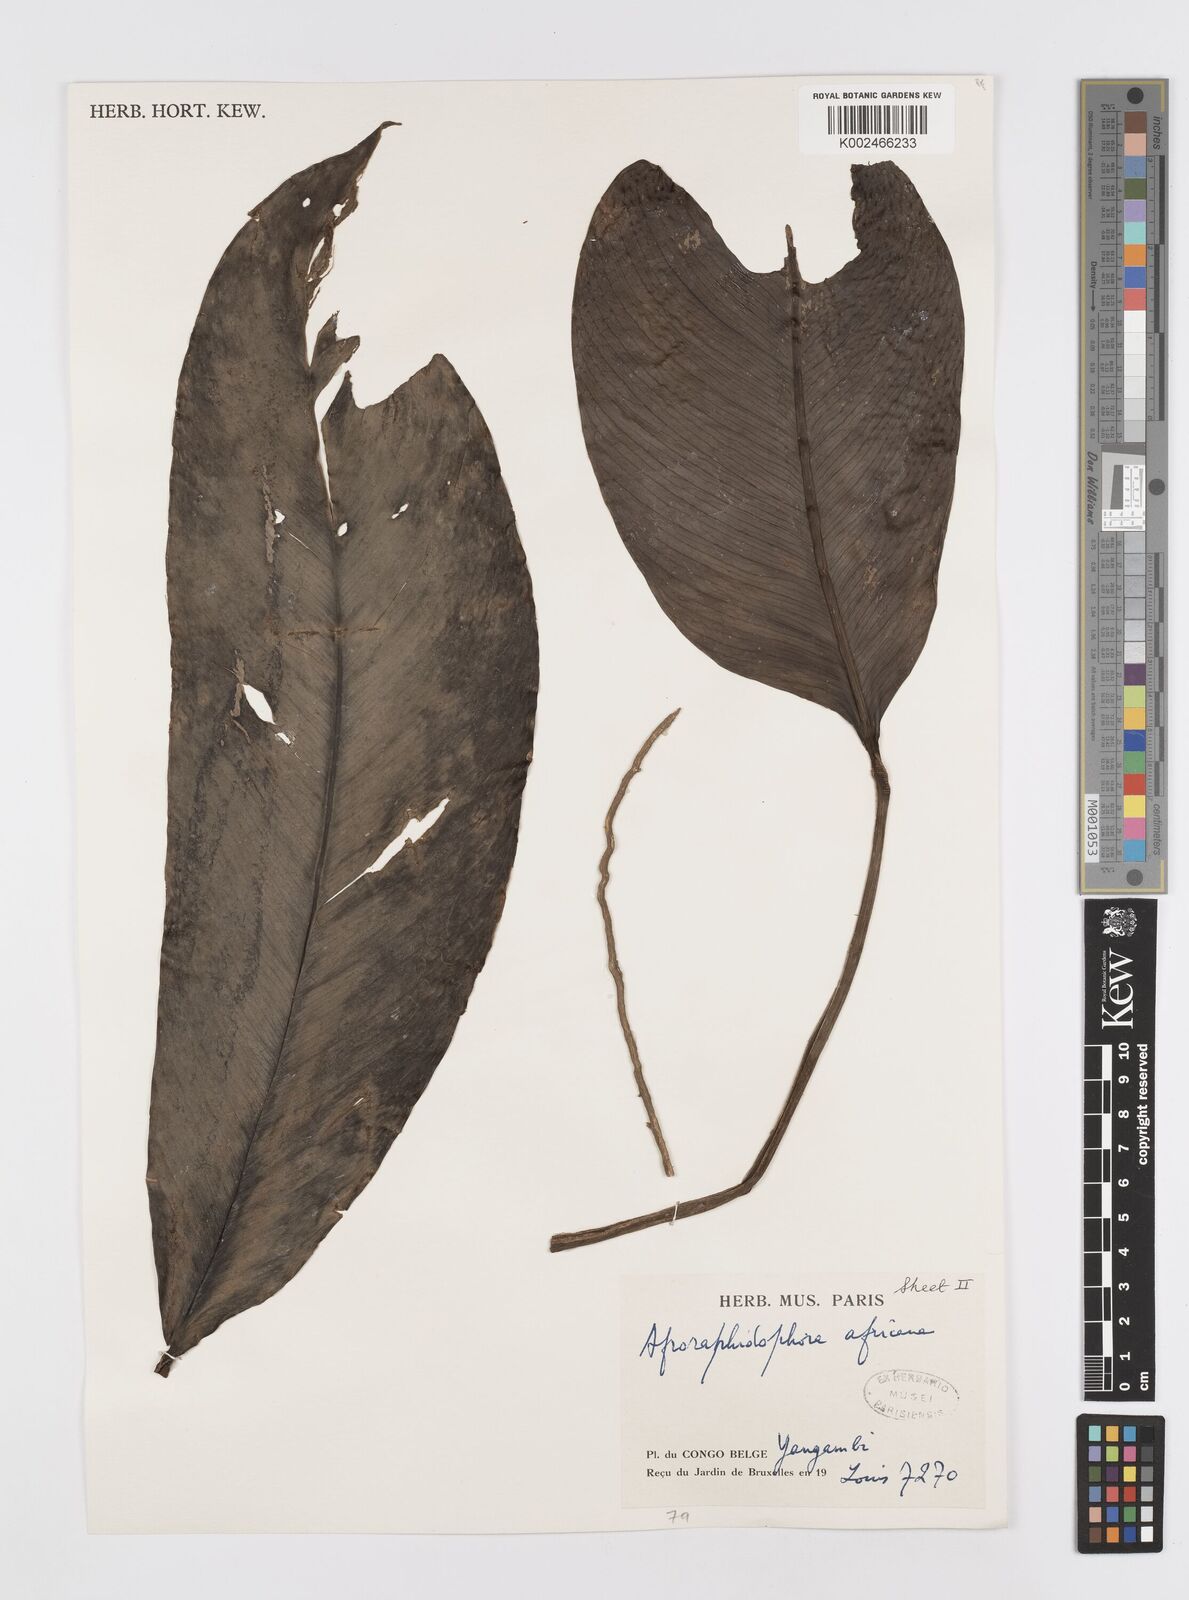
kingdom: Plantae
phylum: Tracheophyta
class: Liliopsida
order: Alismatales
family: Araceae
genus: Rhaphidophora
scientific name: Rhaphidophora africana
